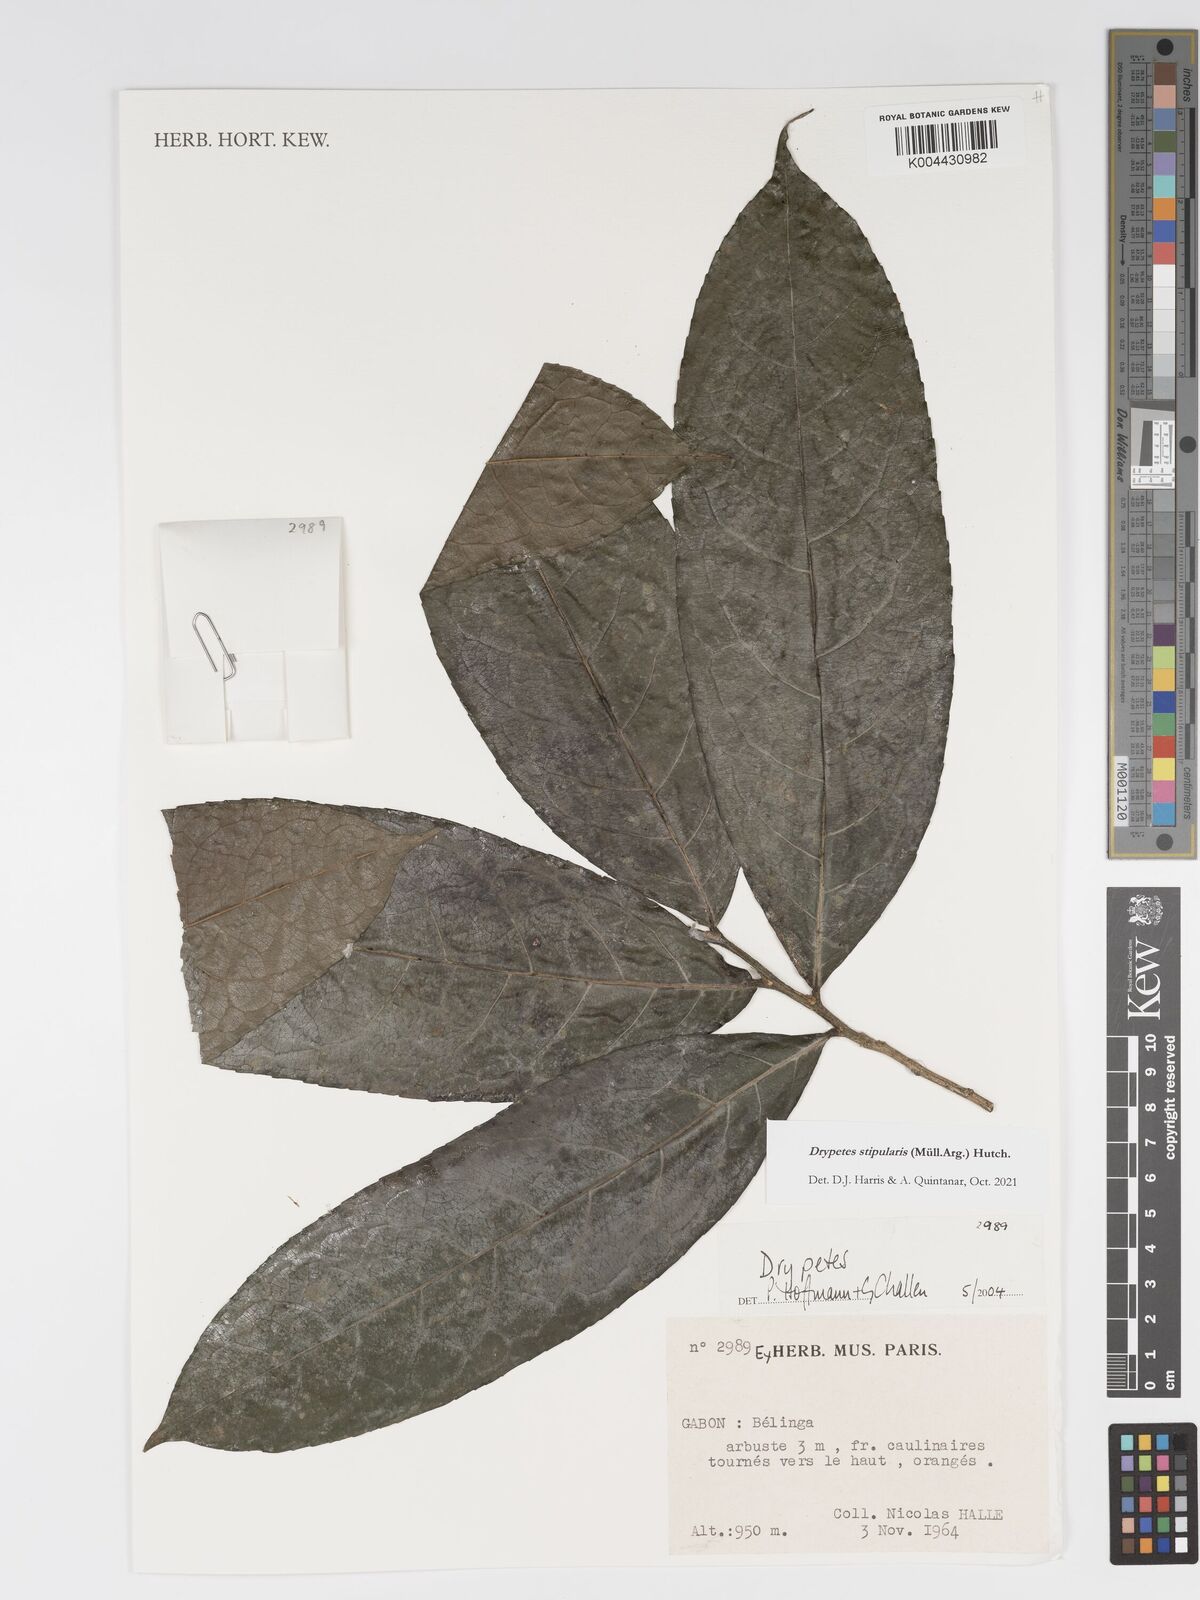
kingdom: Plantae
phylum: Tracheophyta
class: Magnoliopsida
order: Malpighiales
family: Putranjivaceae
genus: Drypetes
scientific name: Drypetes stipularis
